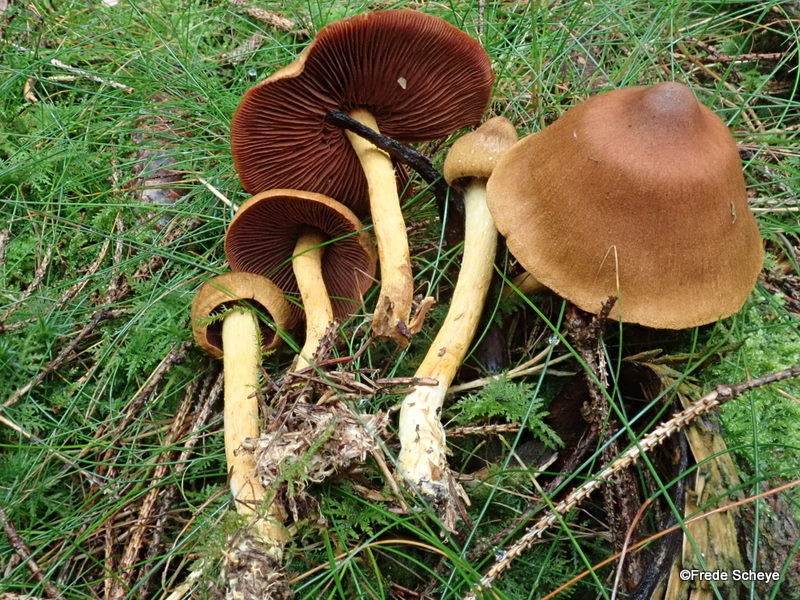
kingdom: Fungi
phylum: Basidiomycota
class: Agaricomycetes
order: Agaricales
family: Cortinariaceae
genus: Cortinarius
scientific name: Cortinarius
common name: cinnoberbladet slørhat
